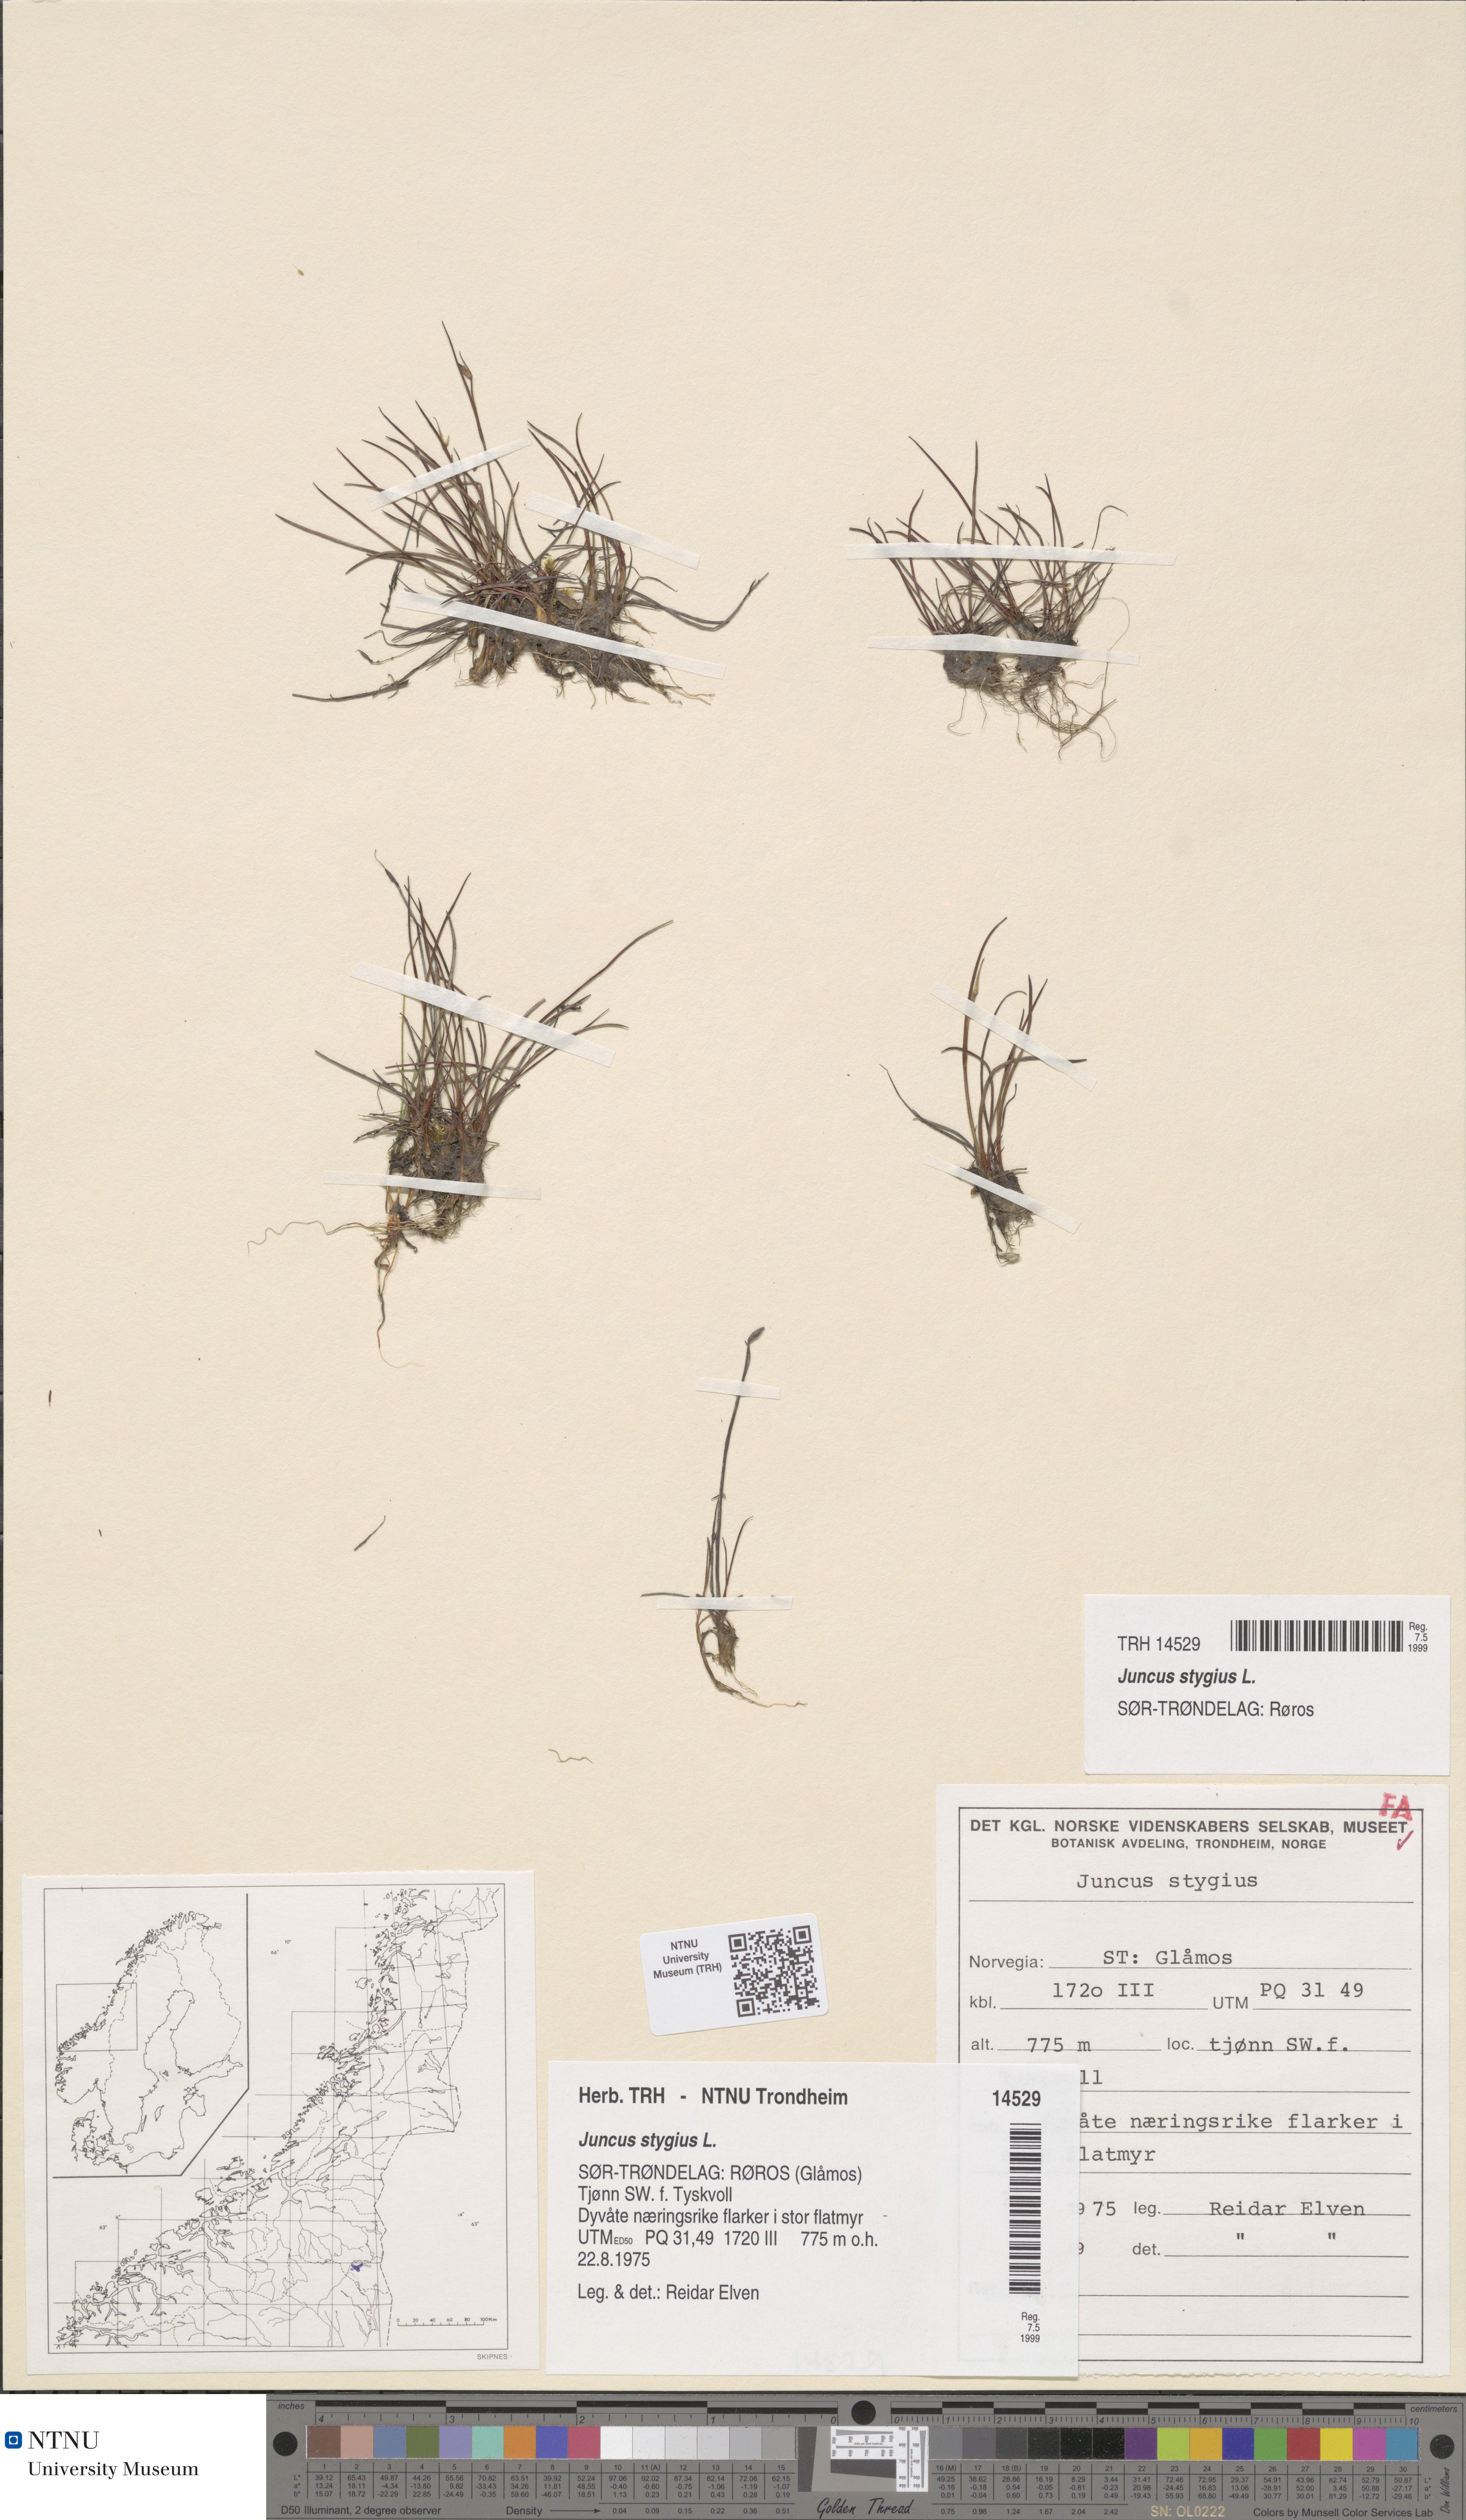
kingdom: Plantae
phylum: Tracheophyta
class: Liliopsida
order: Poales
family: Juncaceae
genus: Juncus
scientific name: Juncus stygius
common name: Bog rush
